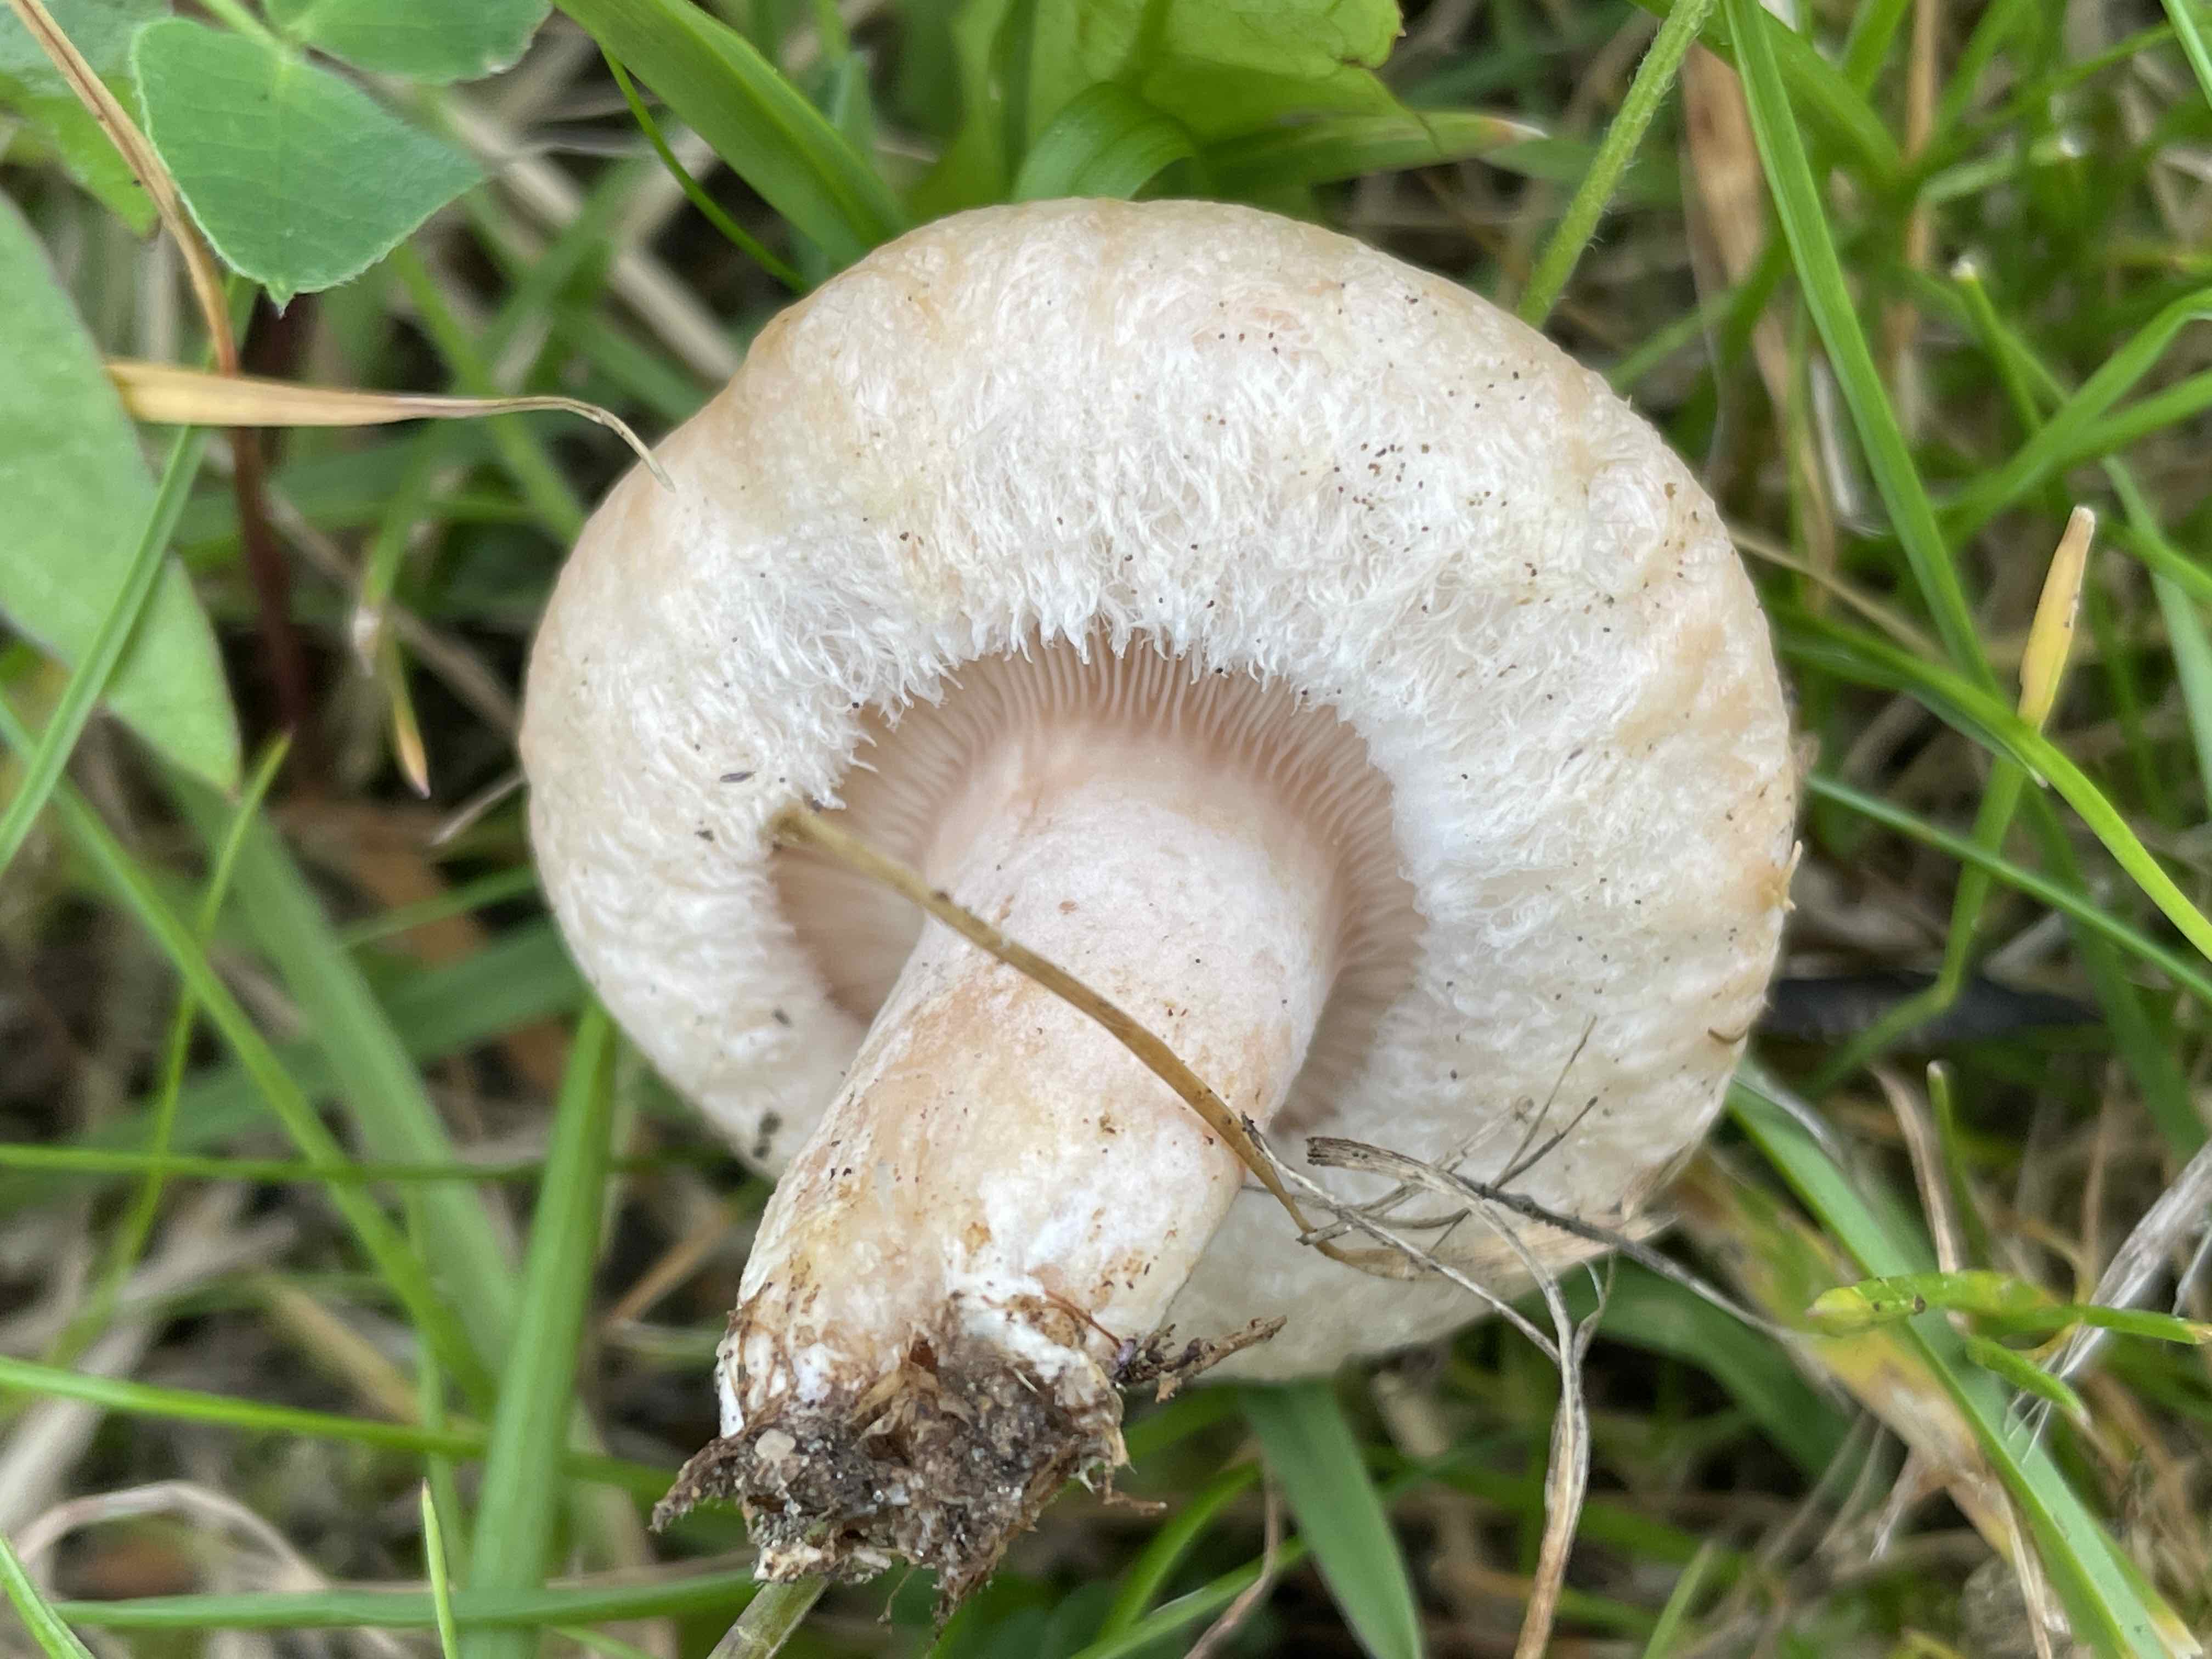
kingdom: Fungi
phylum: Basidiomycota
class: Agaricomycetes
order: Russulales
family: Russulaceae
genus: Lactarius
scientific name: Lactarius pubescens
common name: dunet mælkehat
